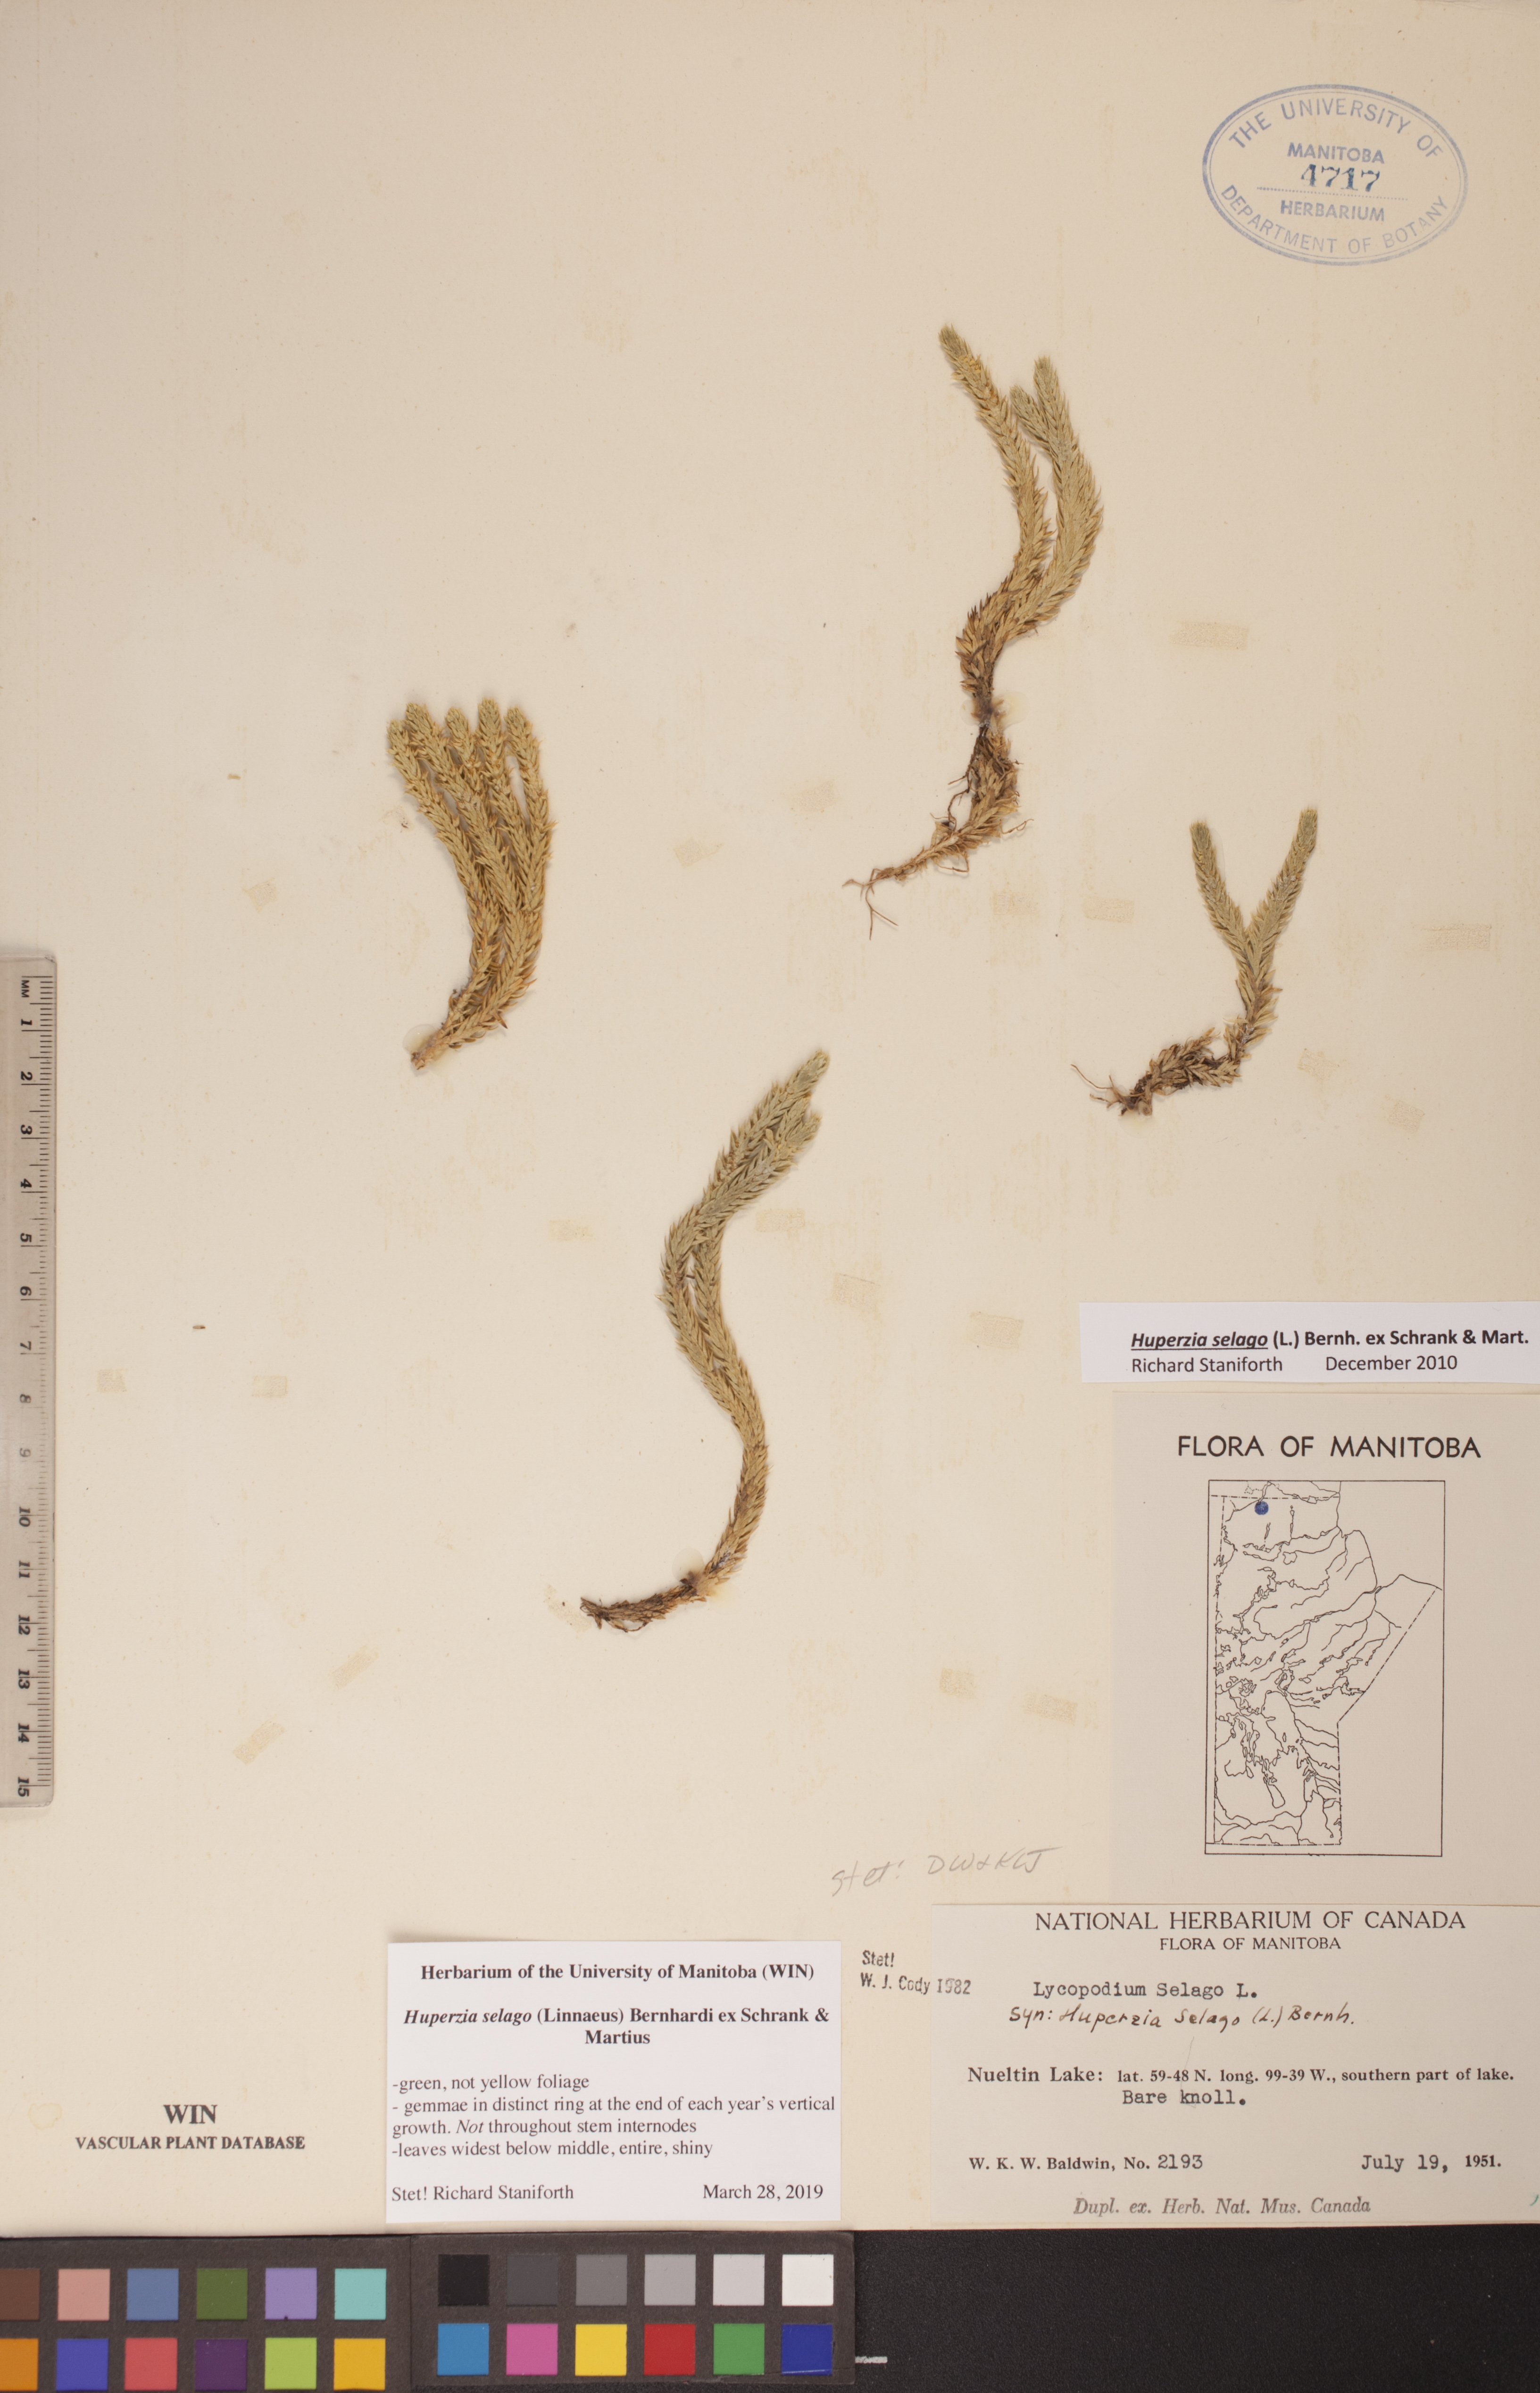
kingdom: Plantae
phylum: Tracheophyta
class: Lycopodiopsida
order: Lycopodiales
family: Lycopodiaceae
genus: Huperzia
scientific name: Huperzia selago
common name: Northern firmoss
